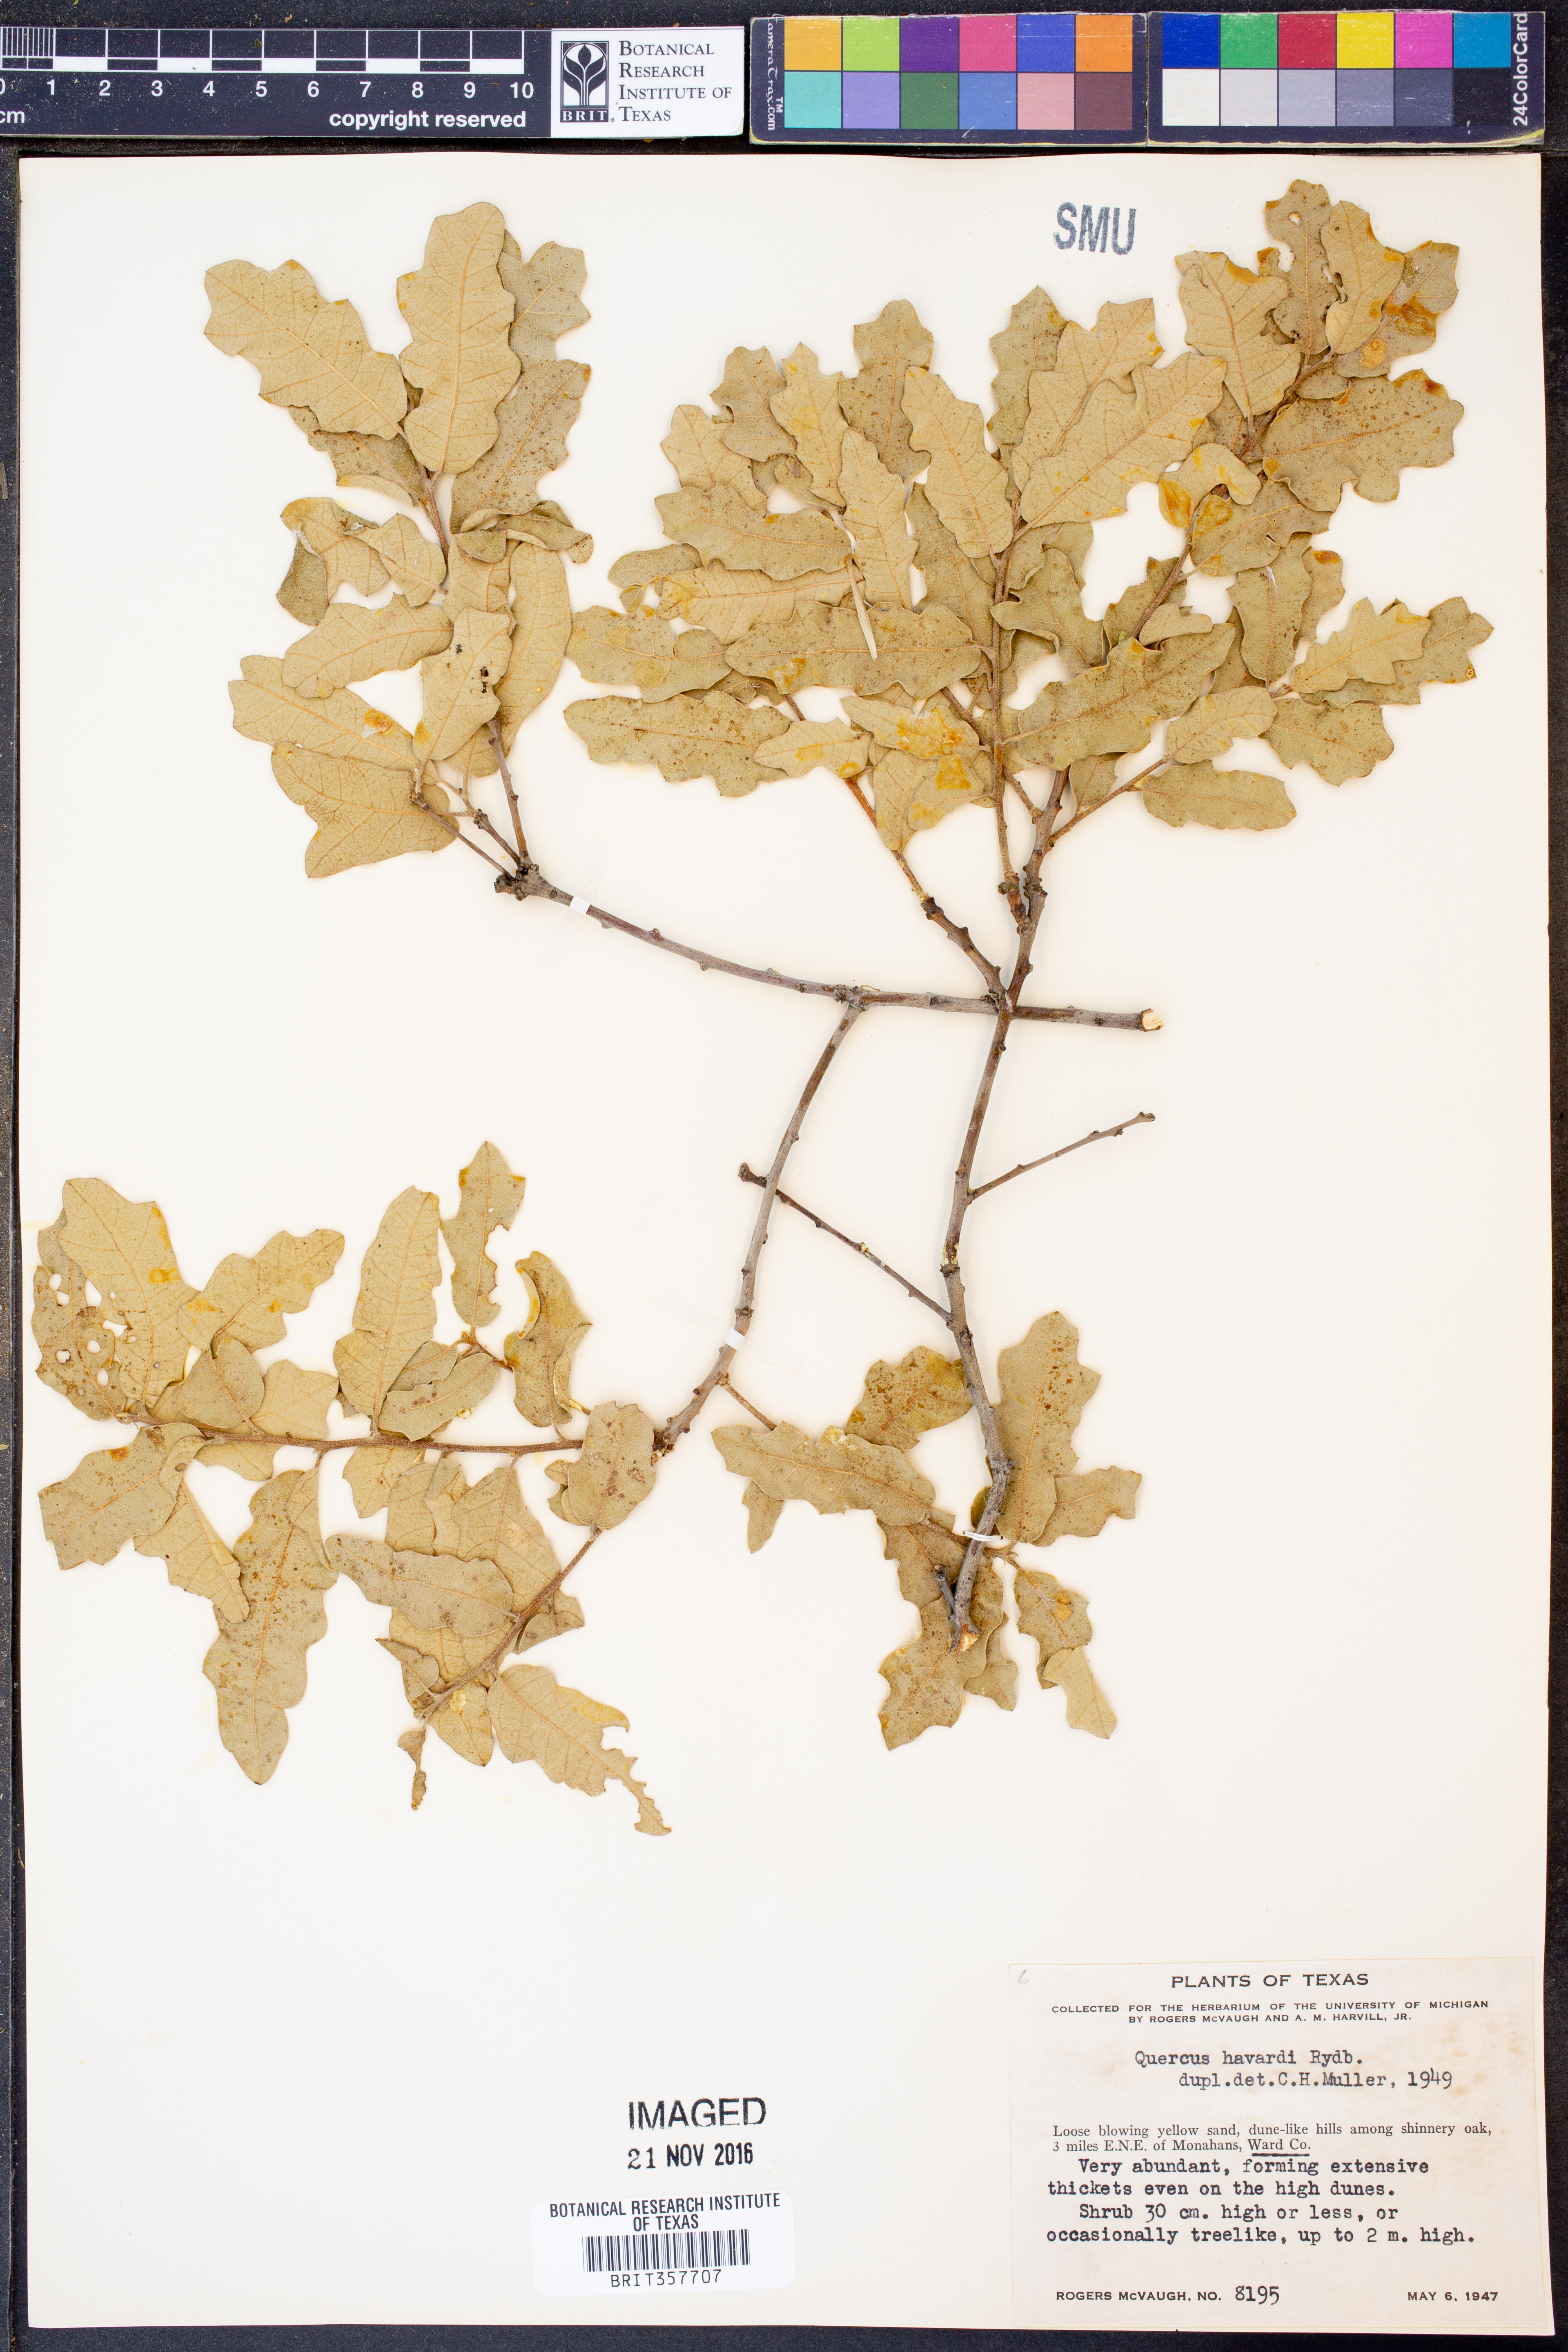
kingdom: Plantae
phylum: Tracheophyta
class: Magnoliopsida
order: Fagales
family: Fagaceae
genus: Quercus
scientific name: Quercus havardii
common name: Shinnery oak
